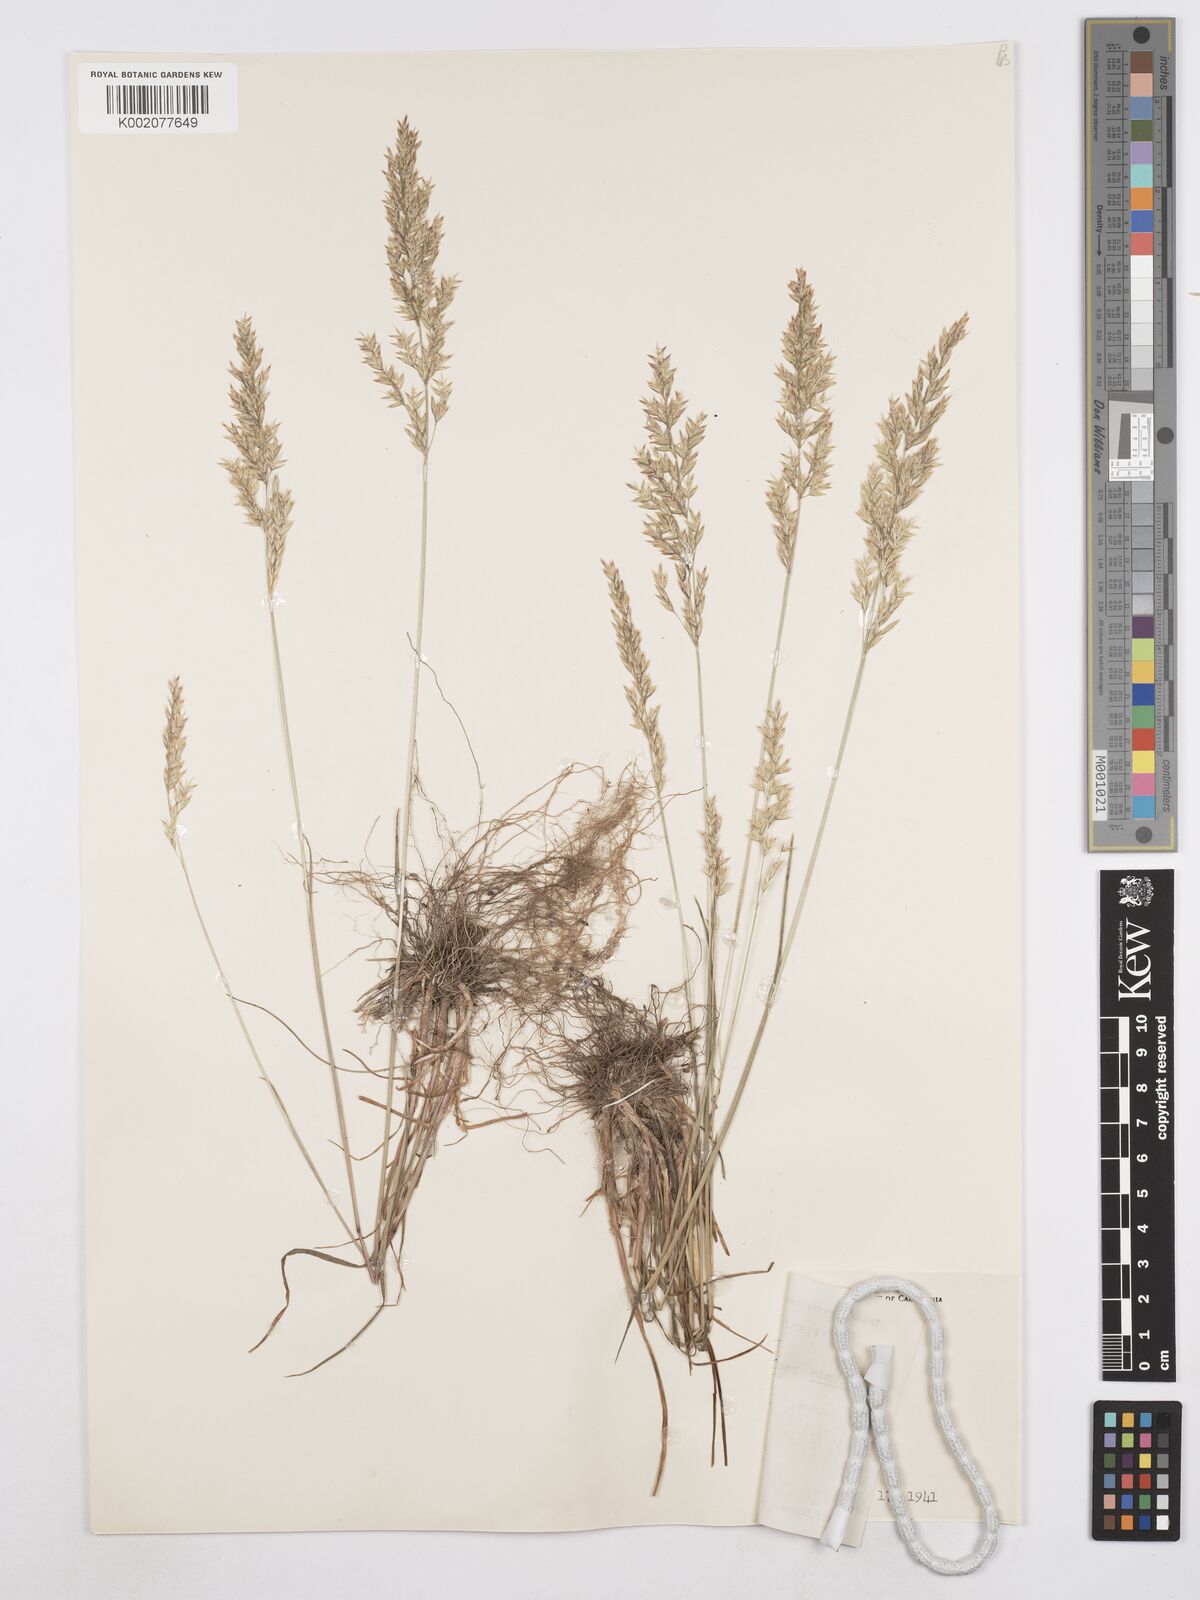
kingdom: Plantae
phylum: Tracheophyta
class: Liliopsida
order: Poales
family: Poaceae
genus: Poa
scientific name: Poa secunda
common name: Sandberg bluegrass
